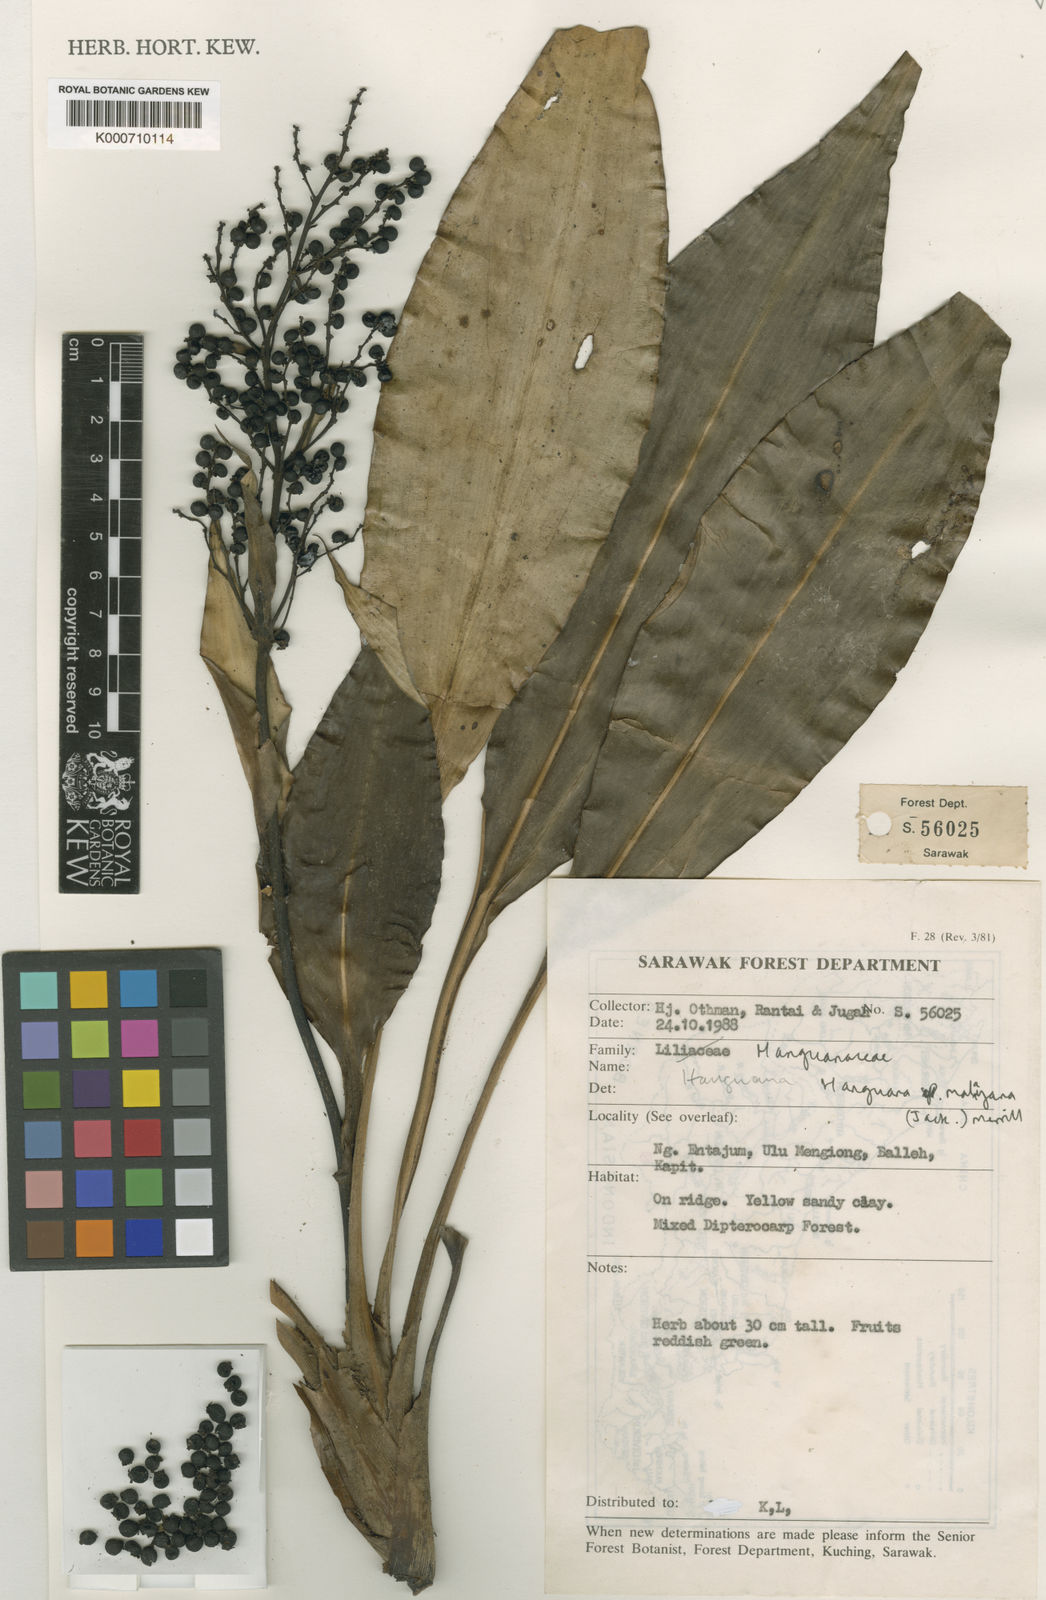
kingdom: Plantae
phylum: Tracheophyta
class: Liliopsida
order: Commelinales
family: Hanguanaceae
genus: Hanguana
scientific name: Hanguana malayana
